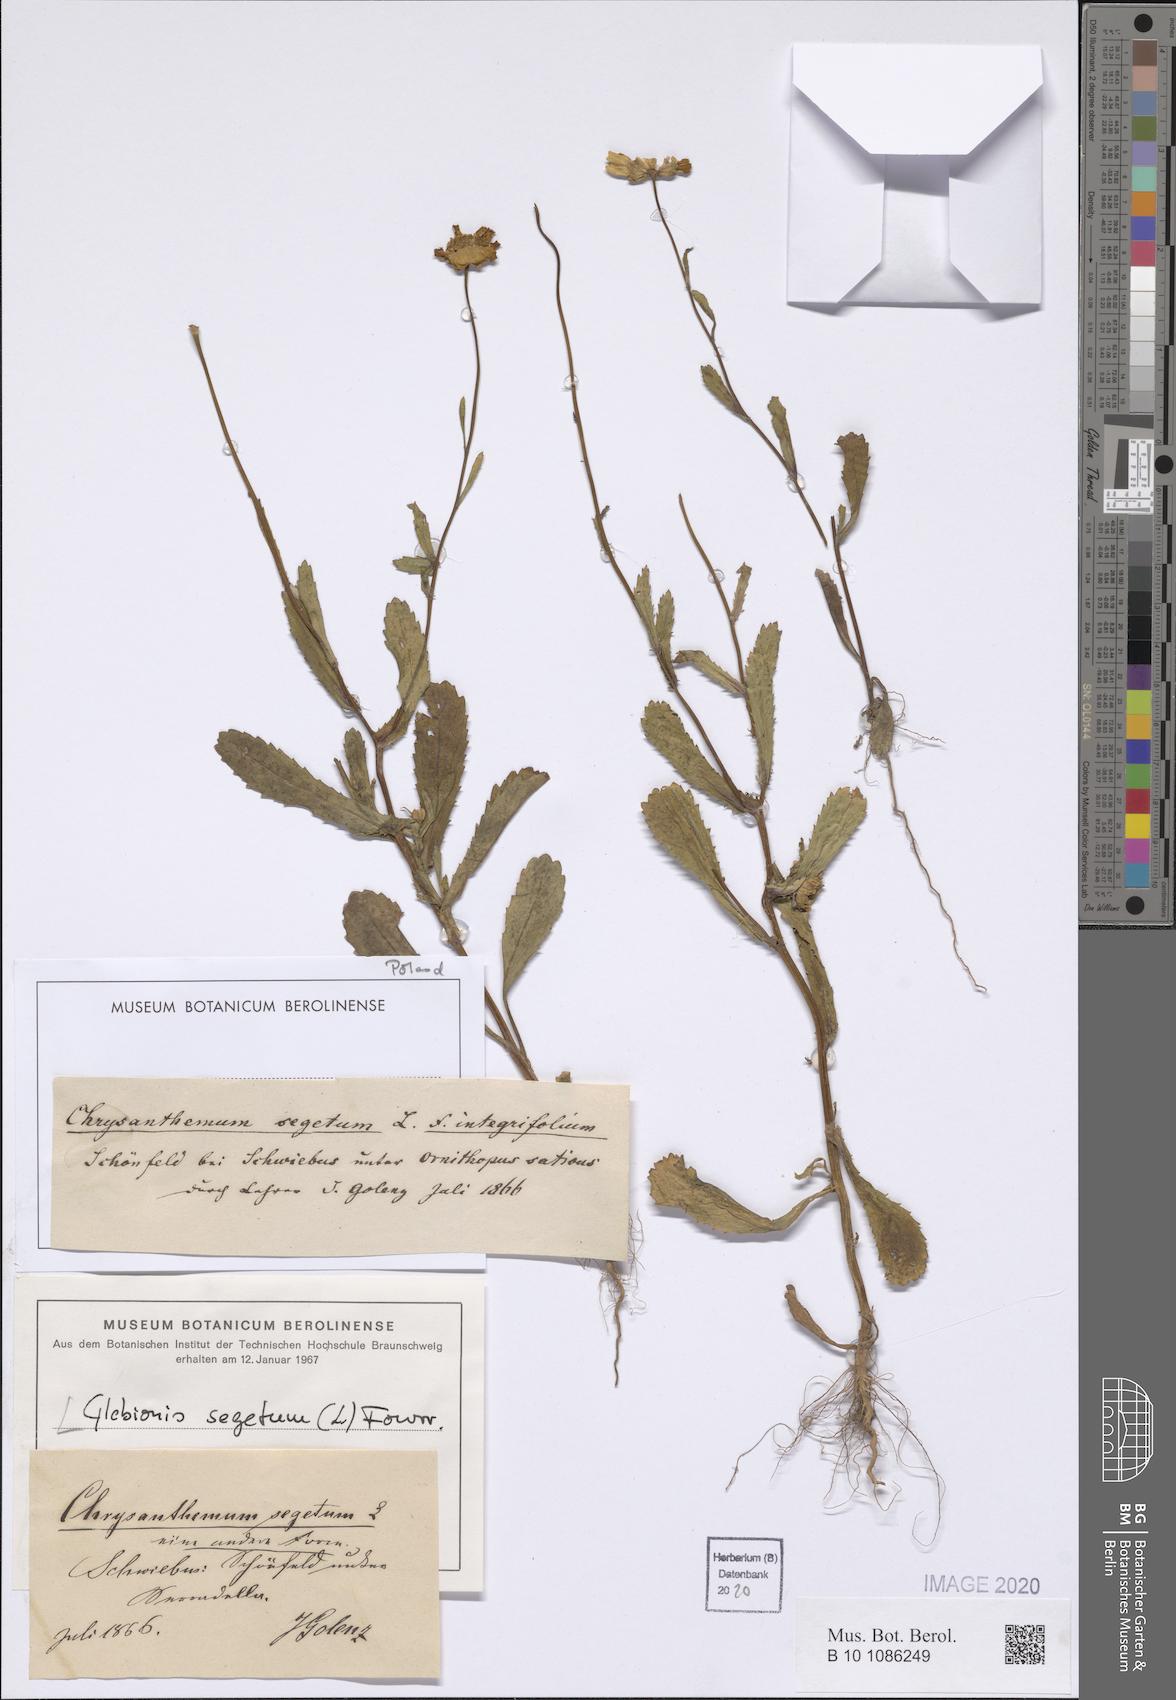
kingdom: Plantae
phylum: Tracheophyta
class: Magnoliopsida
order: Asterales
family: Asteraceae
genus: Coleostephus
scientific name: Coleostephus myconis
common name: Mediterranean marigold
